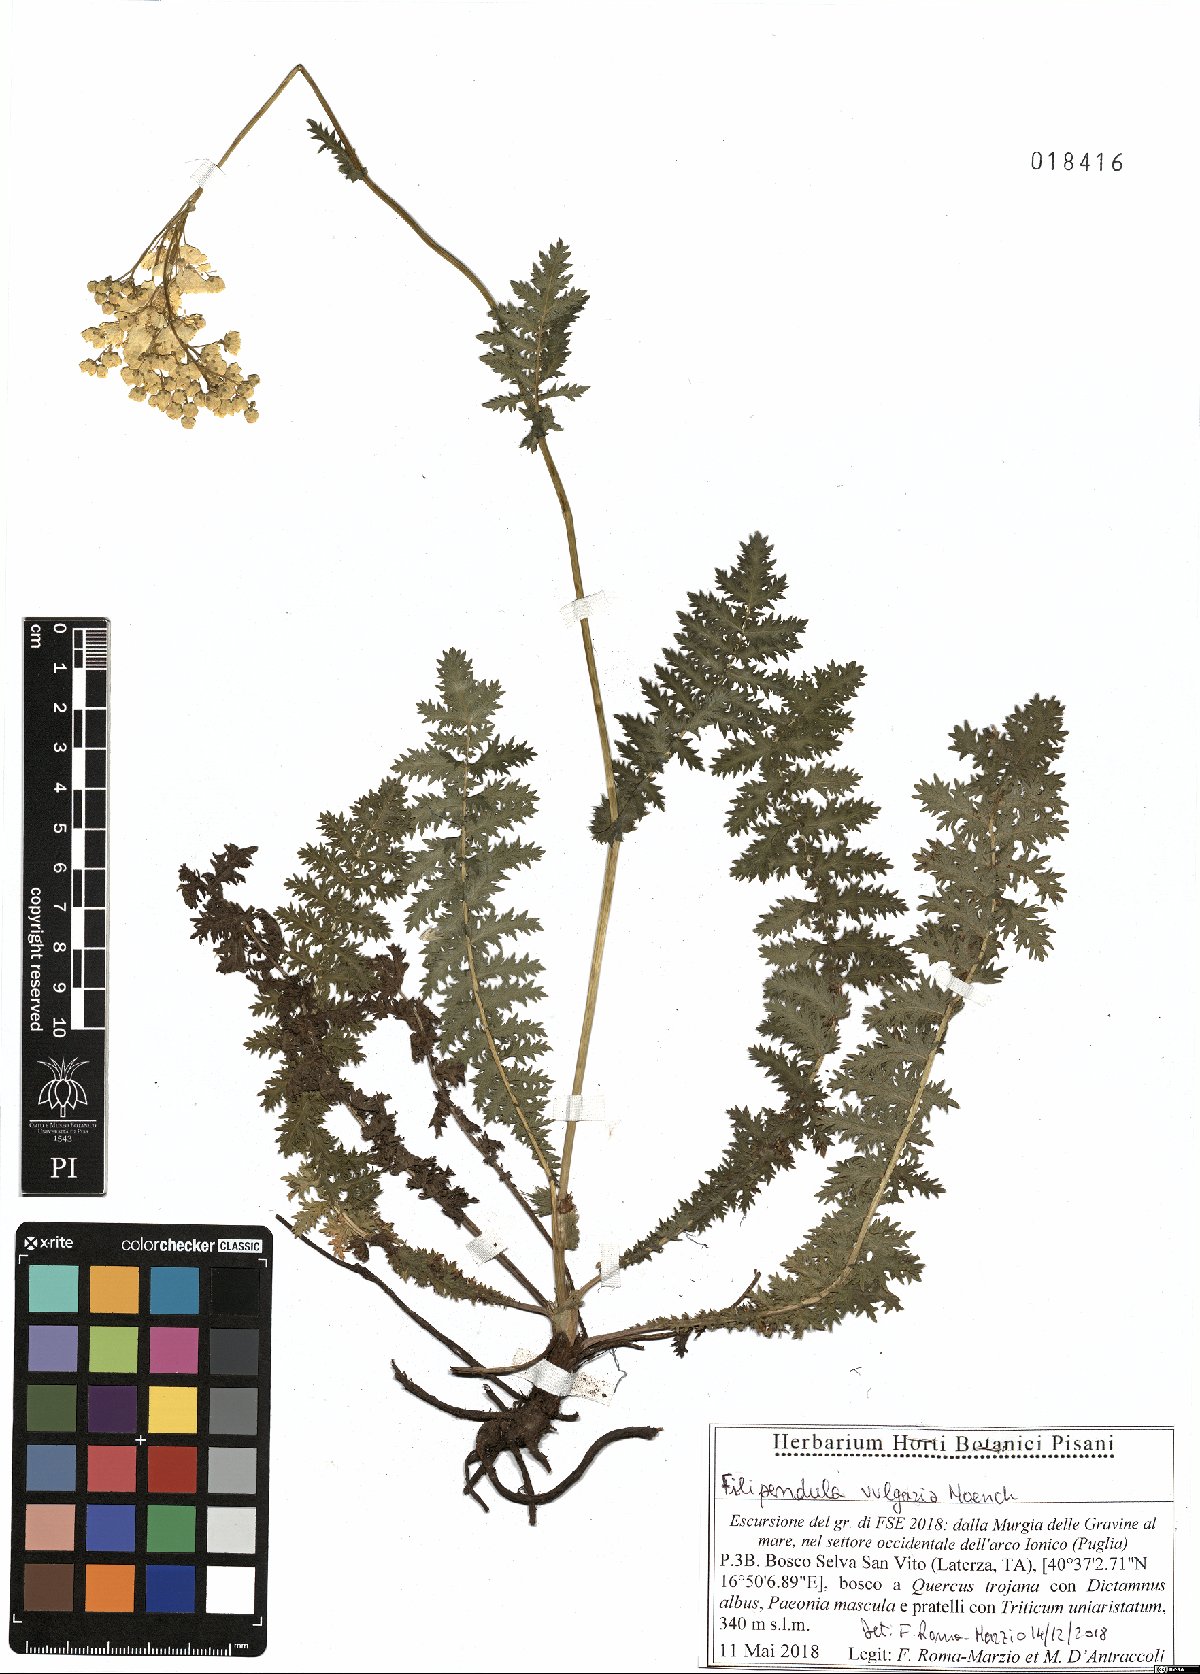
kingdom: Plantae
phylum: Tracheophyta
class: Magnoliopsida
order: Rosales
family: Rosaceae
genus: Filipendula
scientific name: Filipendula vulgaris
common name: Dropwort
